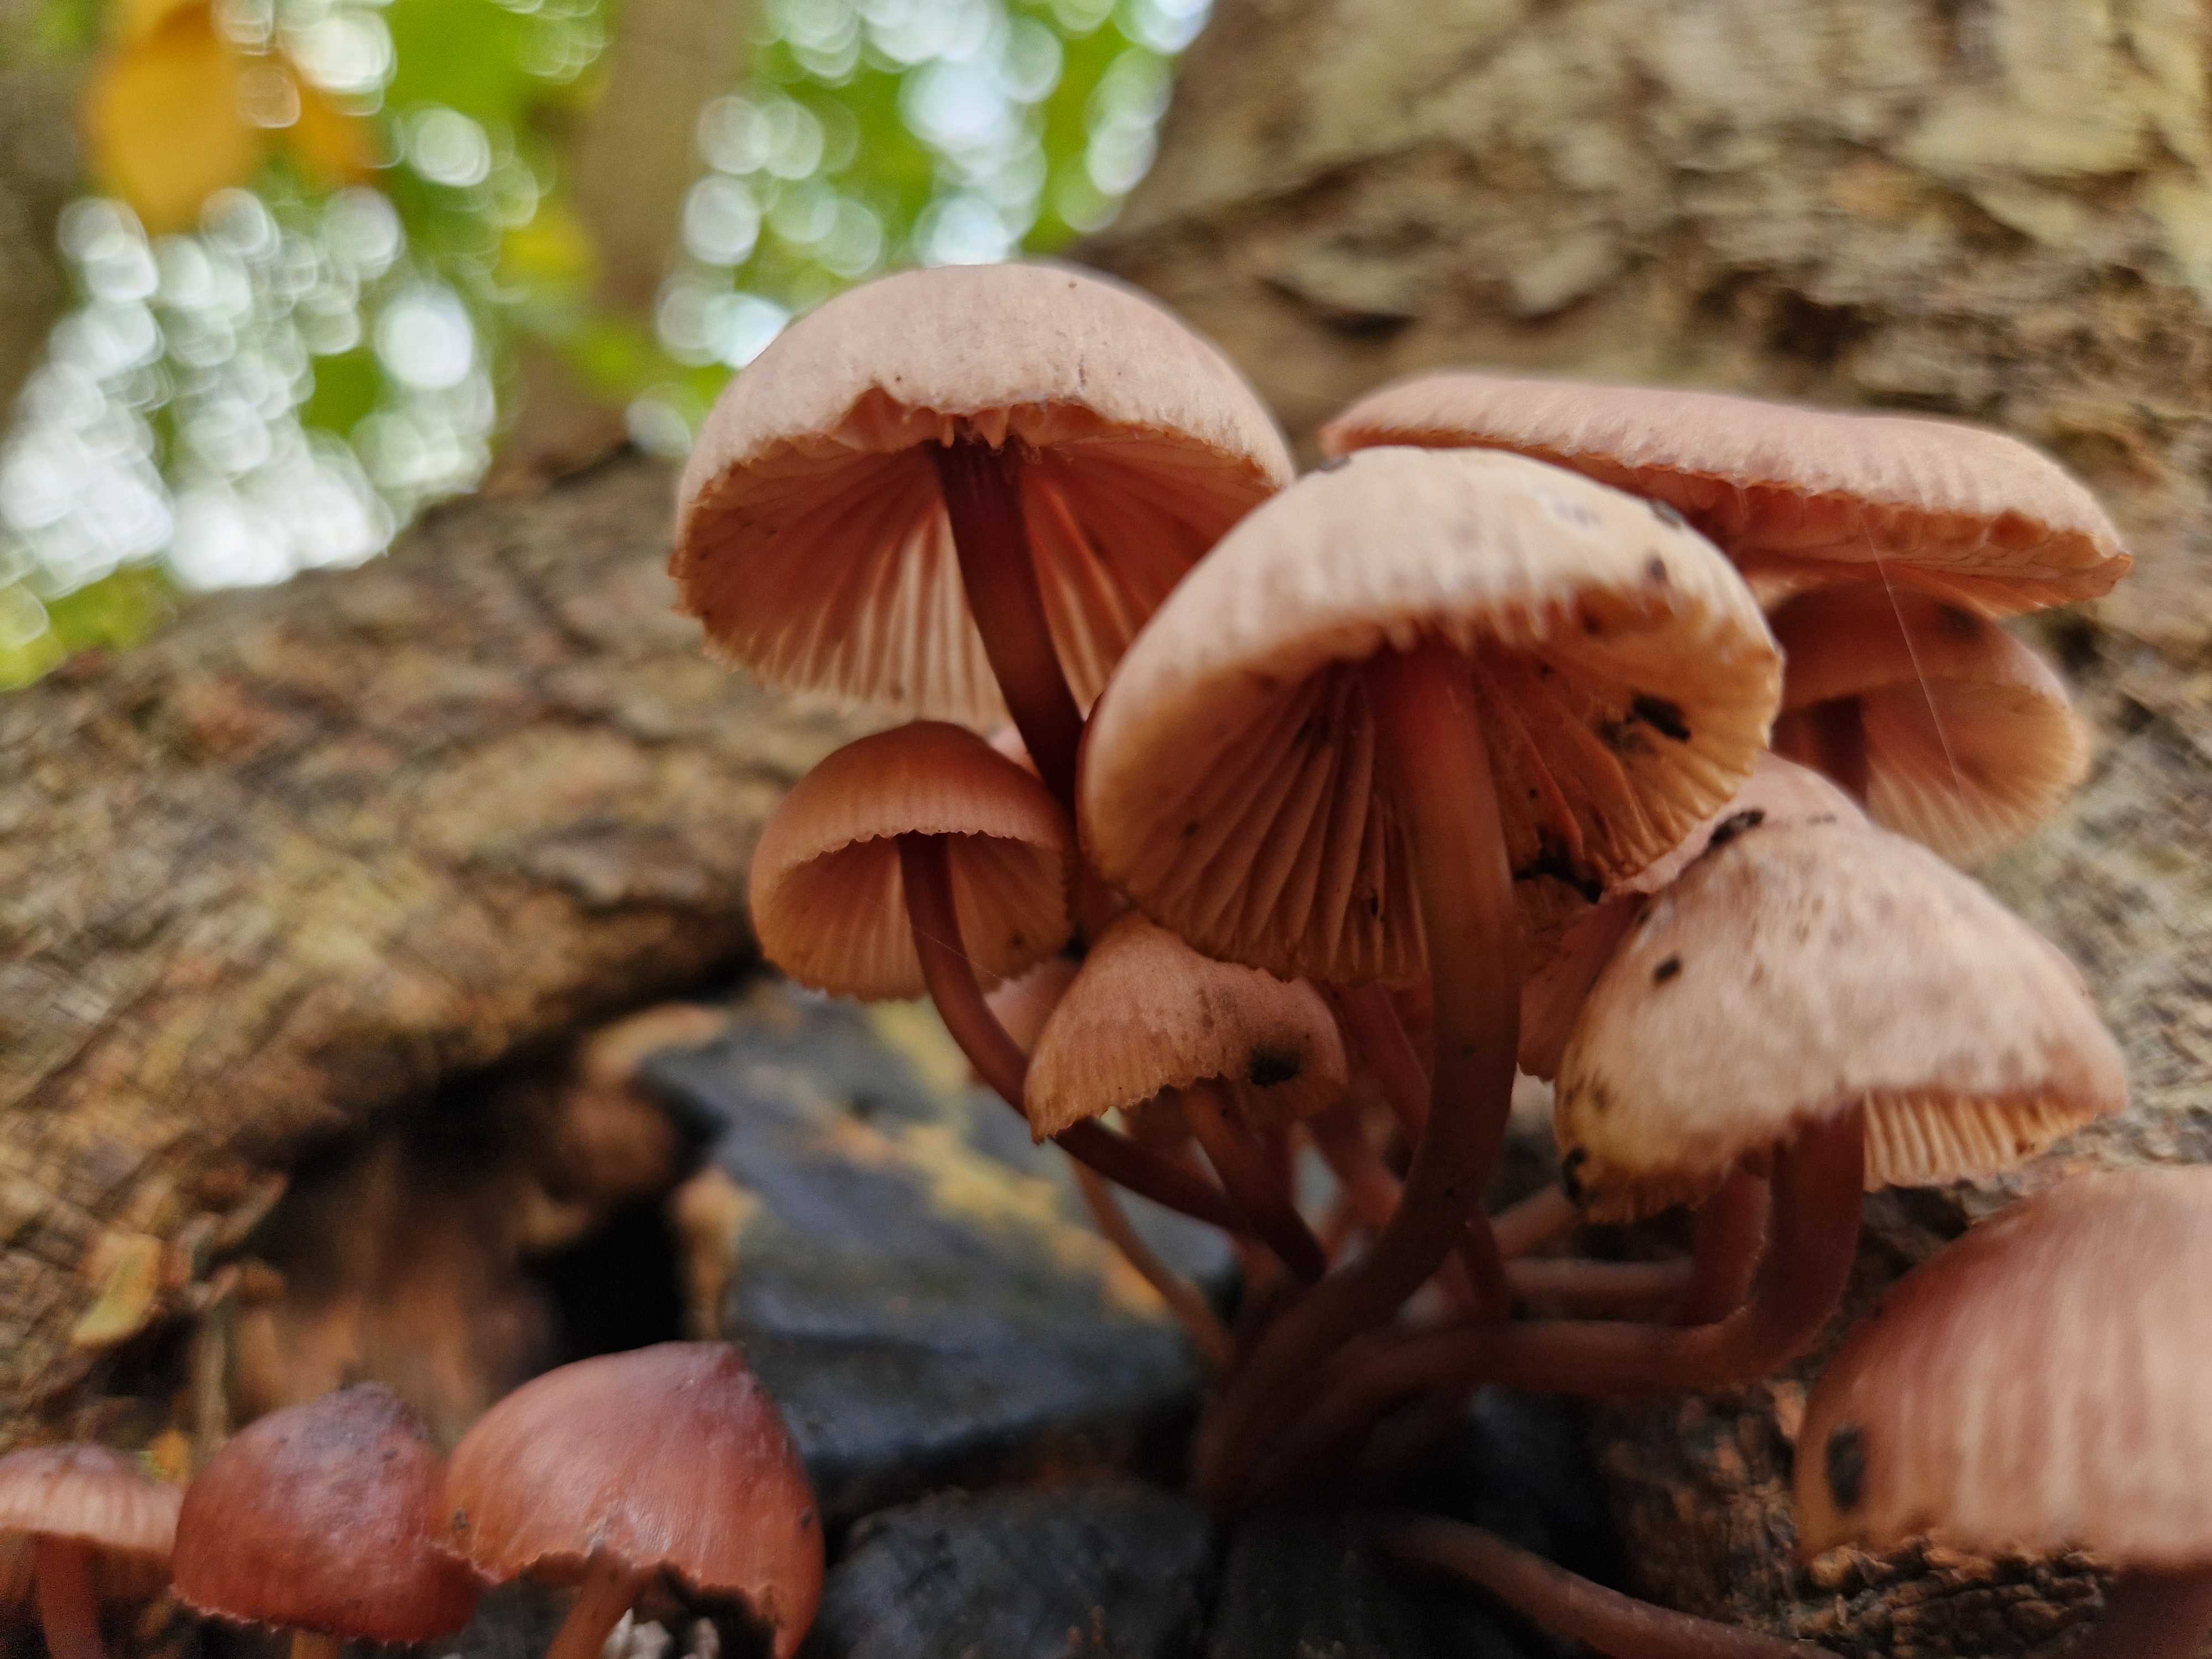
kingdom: Fungi
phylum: Basidiomycota
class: Agaricomycetes
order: Agaricales
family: Mycenaceae
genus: Mycena
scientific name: Mycena haematopus
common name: blødende huesvamp
